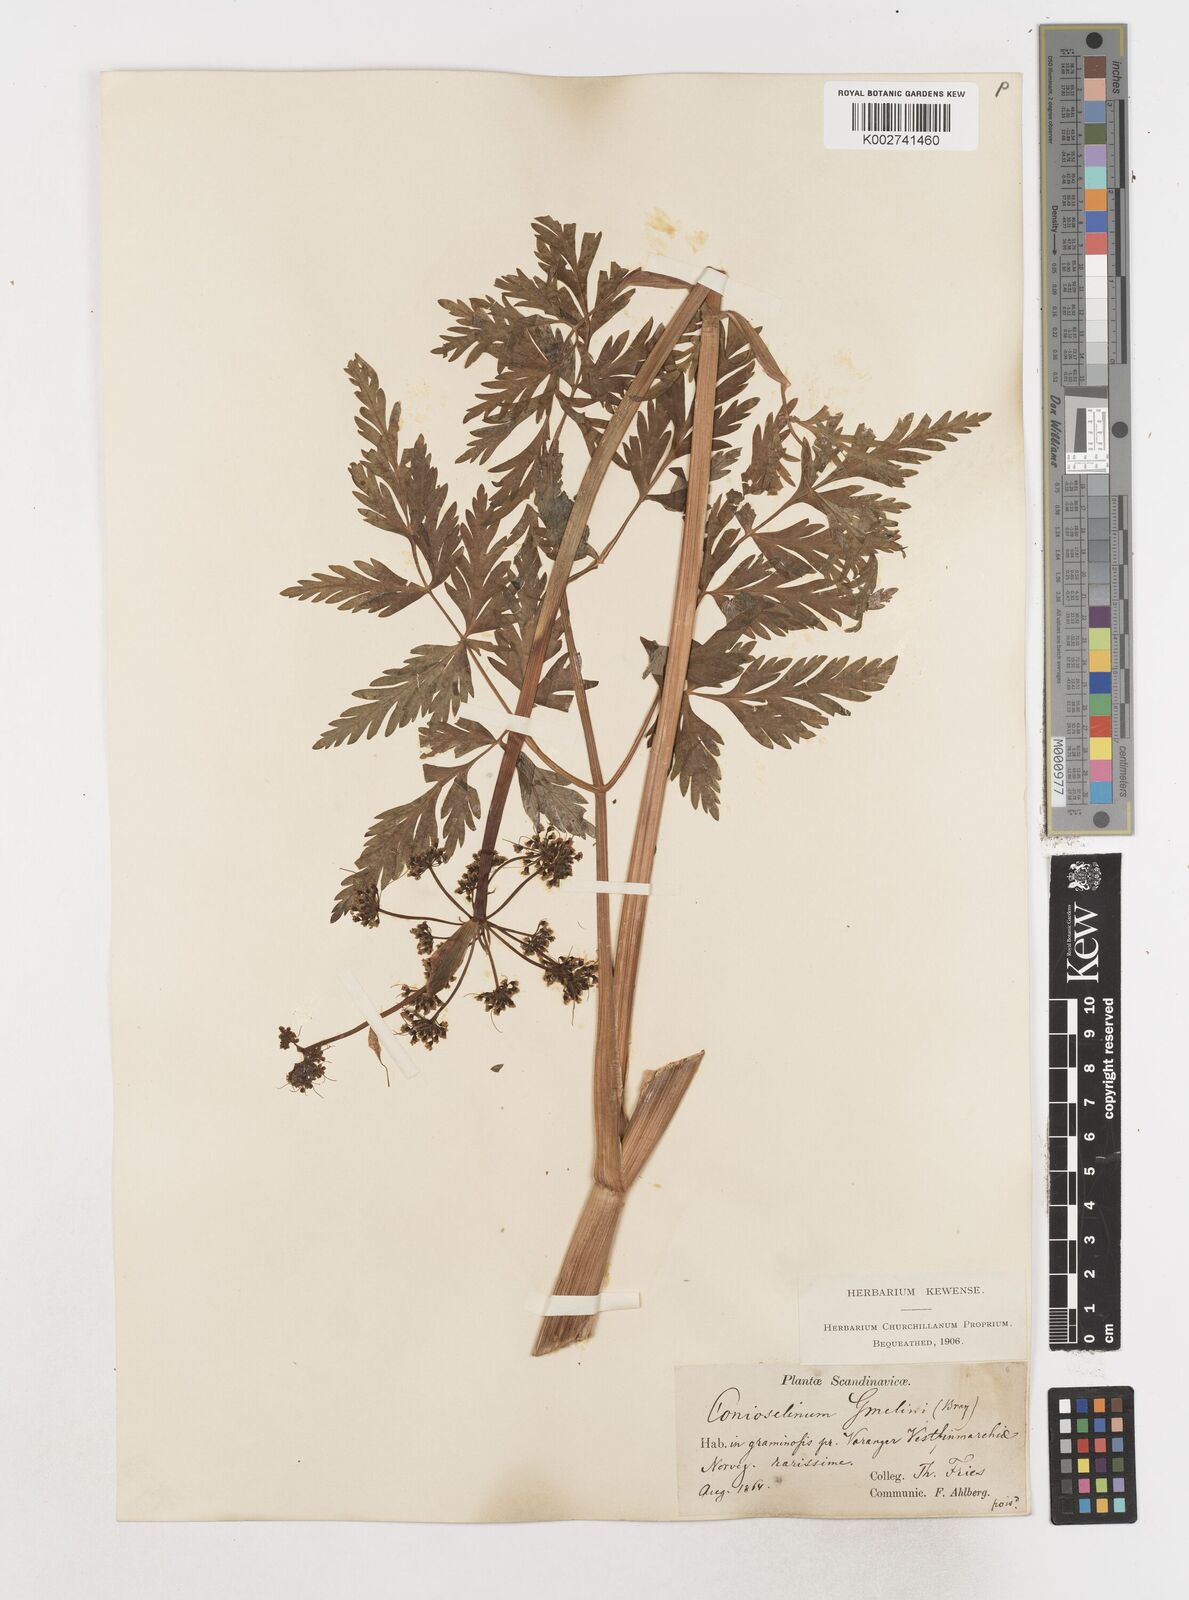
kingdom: Plantae
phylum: Tracheophyta
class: Magnoliopsida
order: Apiales
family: Apiaceae
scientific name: Apiaceae
